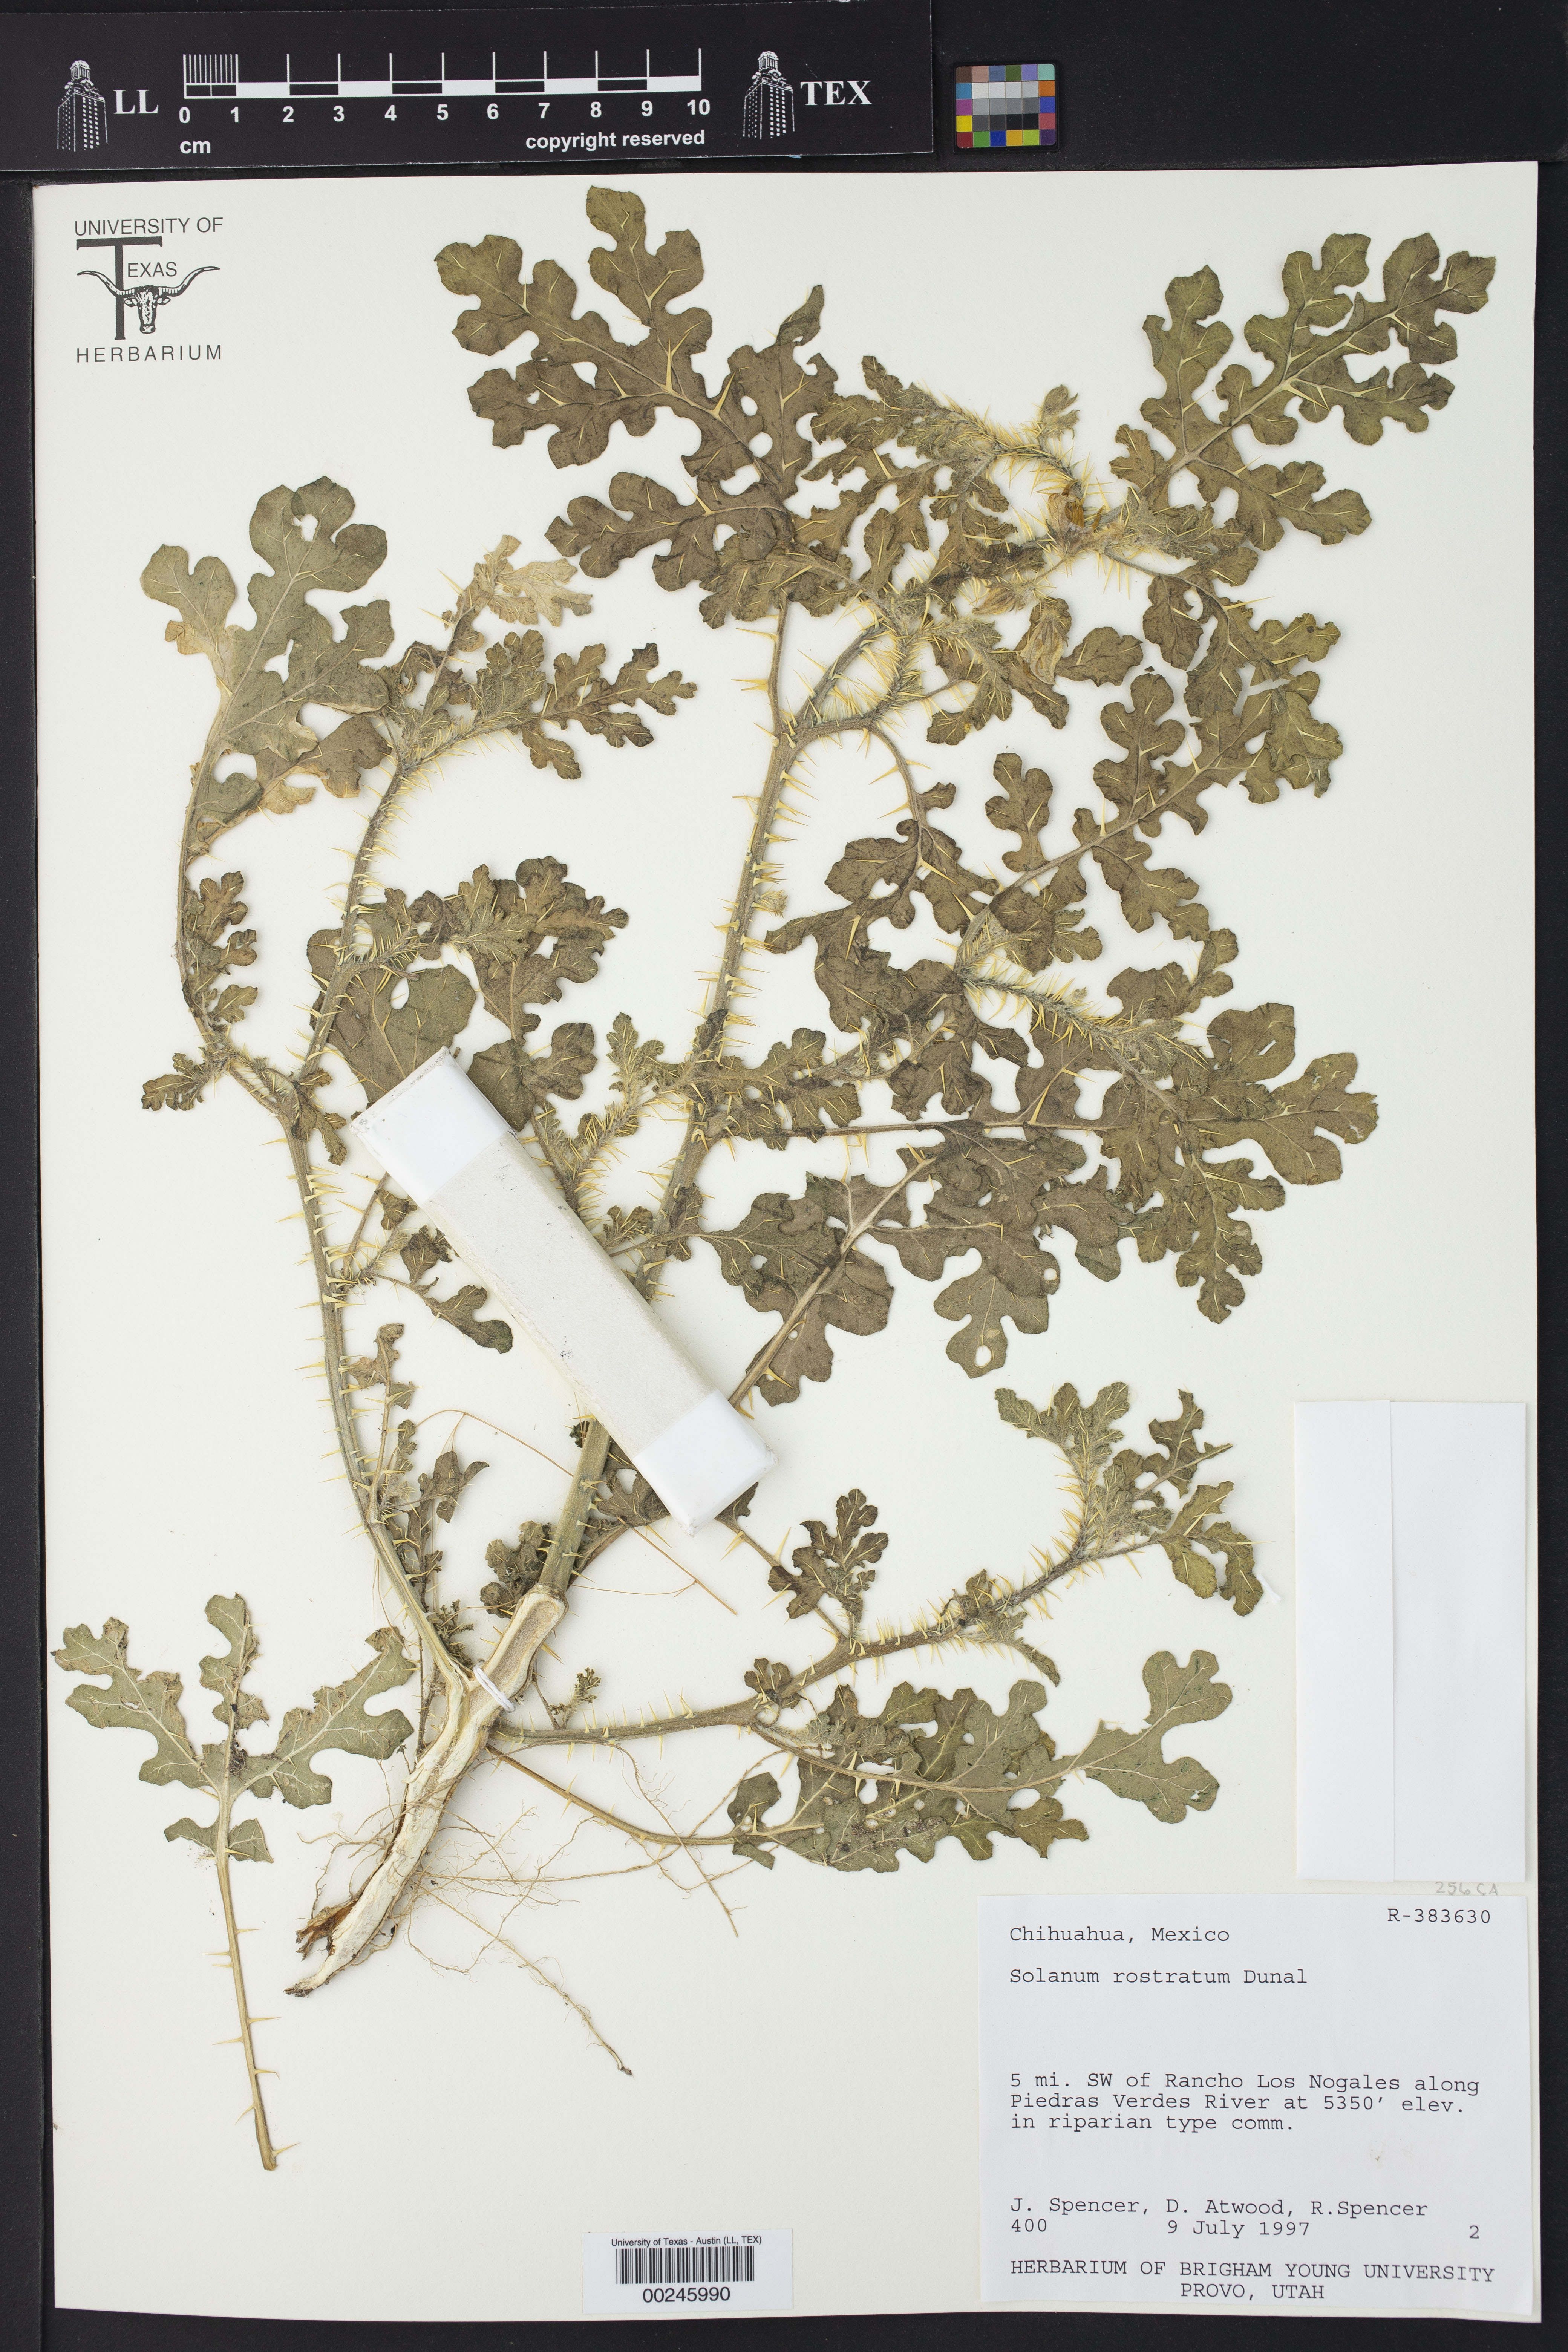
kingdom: Plantae
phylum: Tracheophyta
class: Magnoliopsida
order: Solanales
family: Solanaceae
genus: Solanum
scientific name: Solanum angustifolium
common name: Buffalobur nightshade
